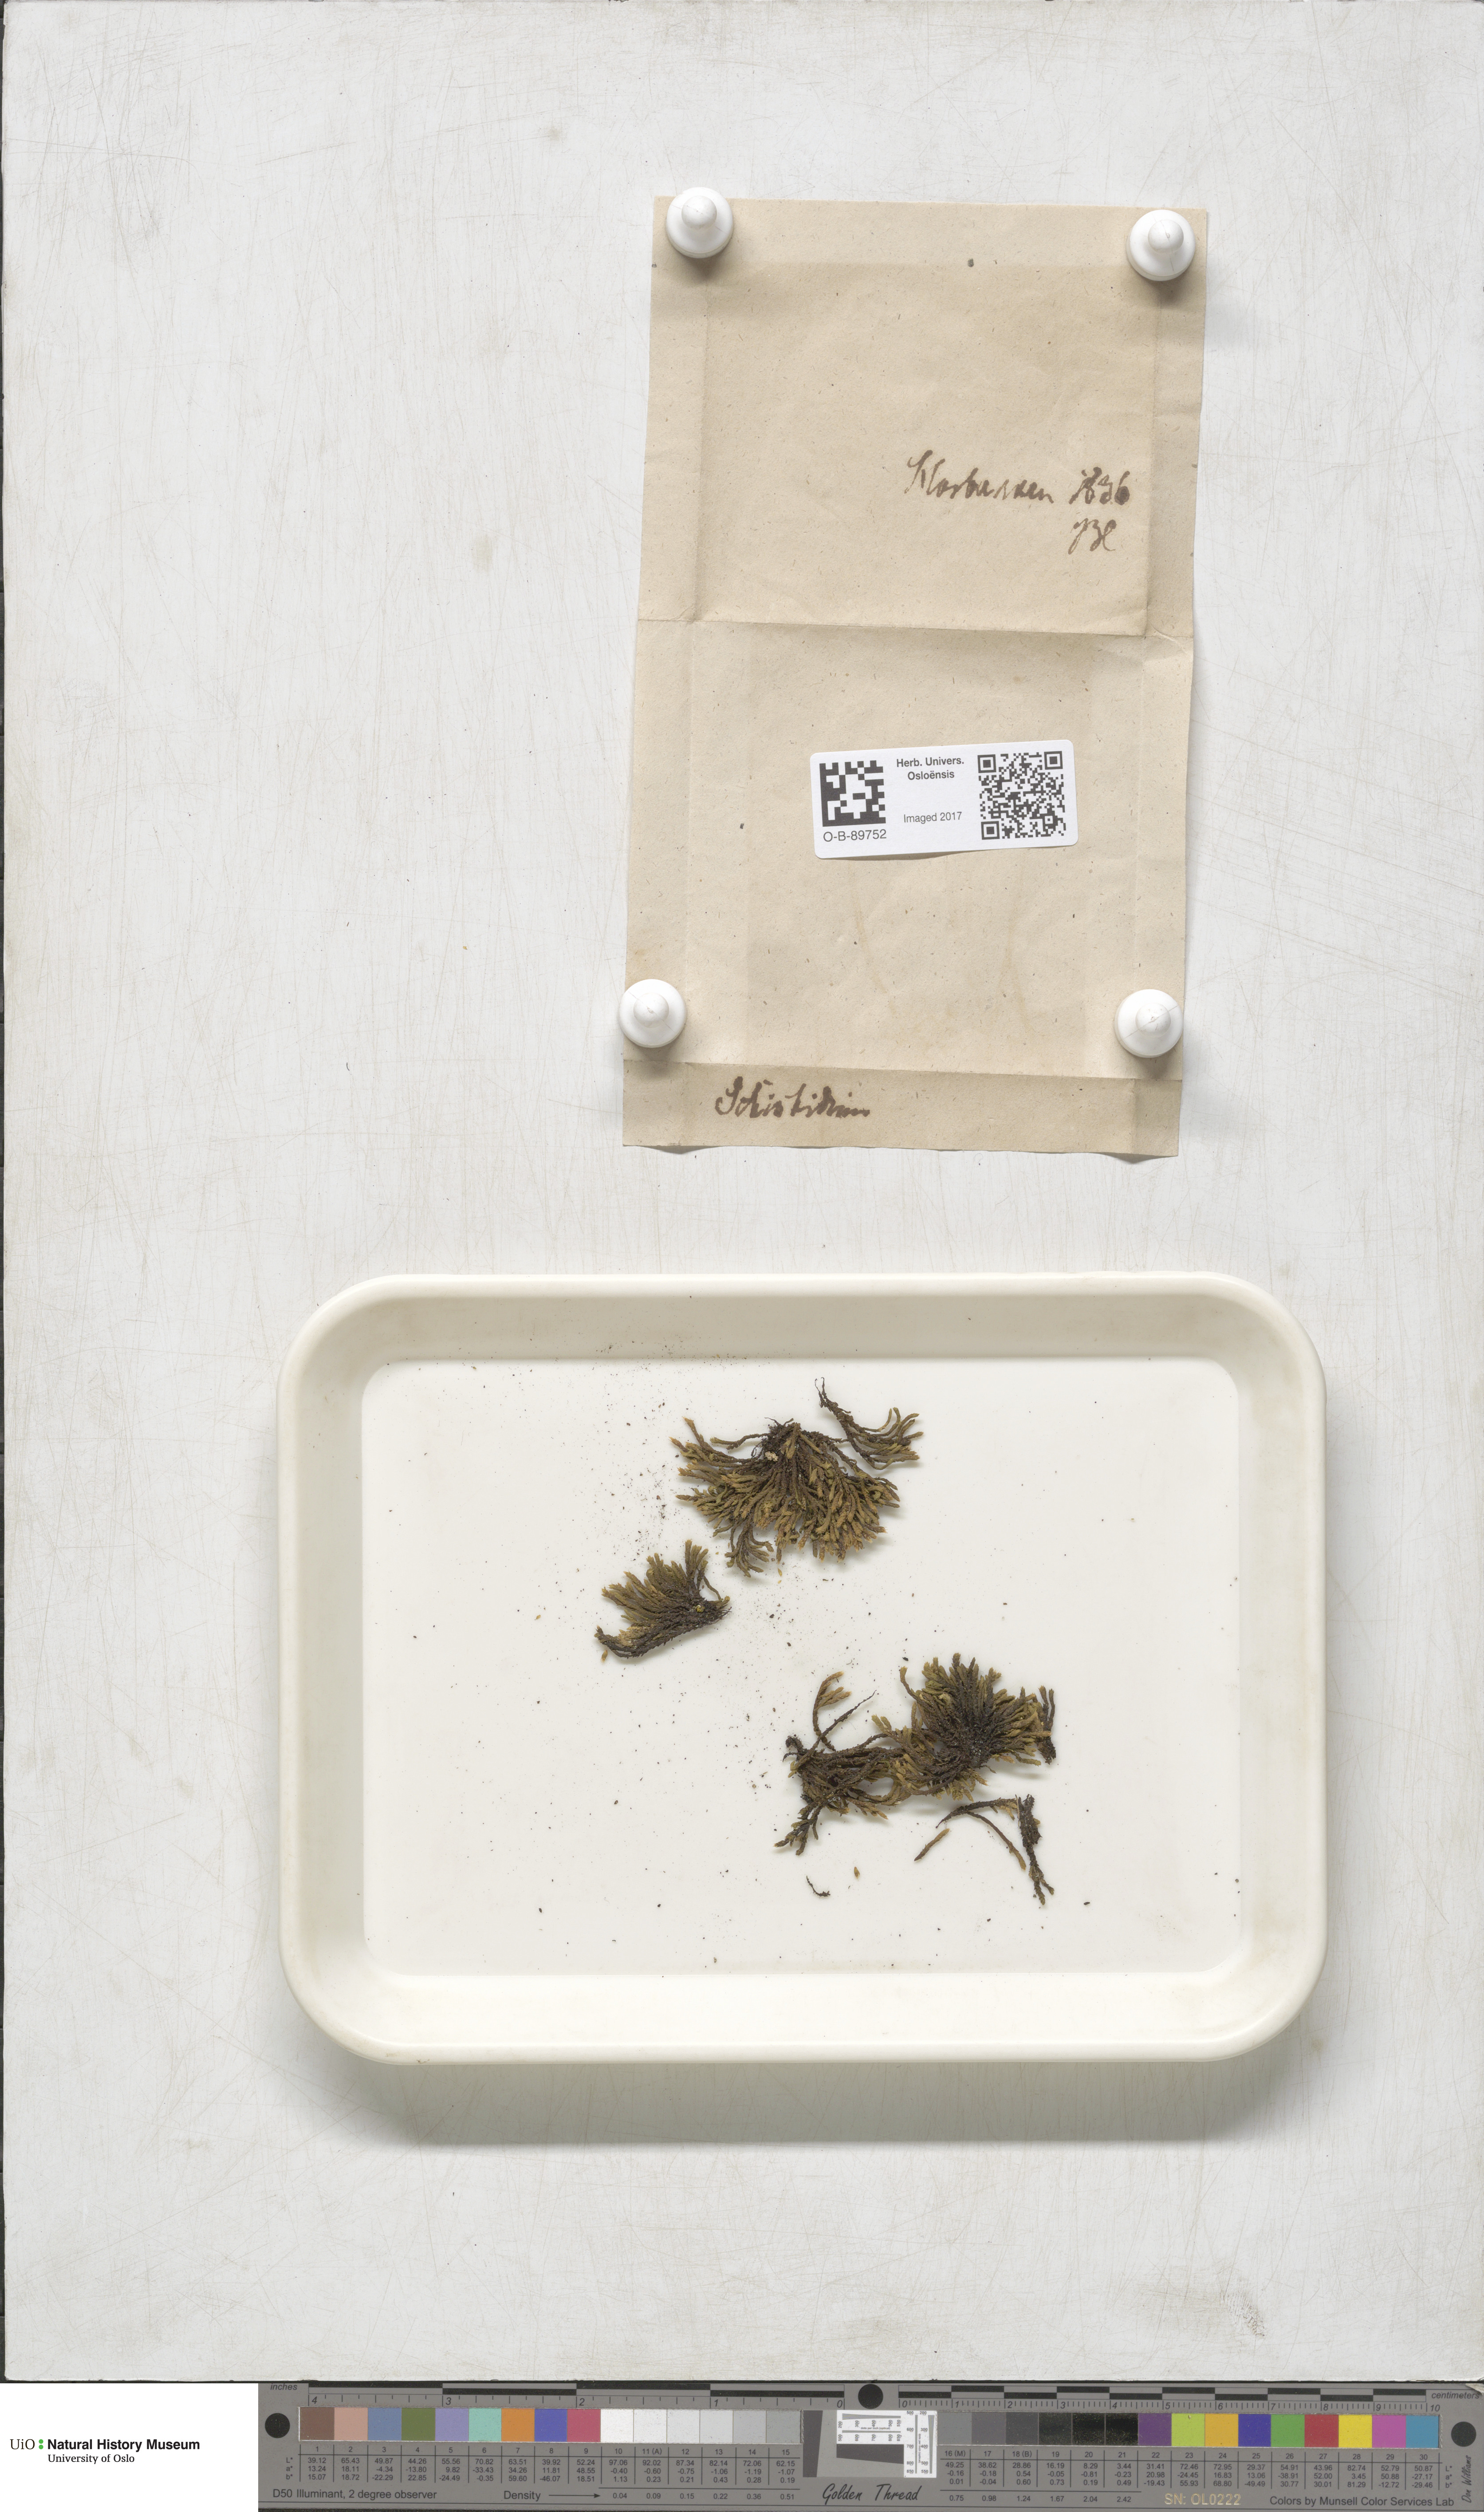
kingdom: Plantae
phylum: Bryophyta
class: Bryopsida
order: Hedwigiales
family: Hedwigiaceae
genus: Hedwigia
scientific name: Hedwigia ciliata
